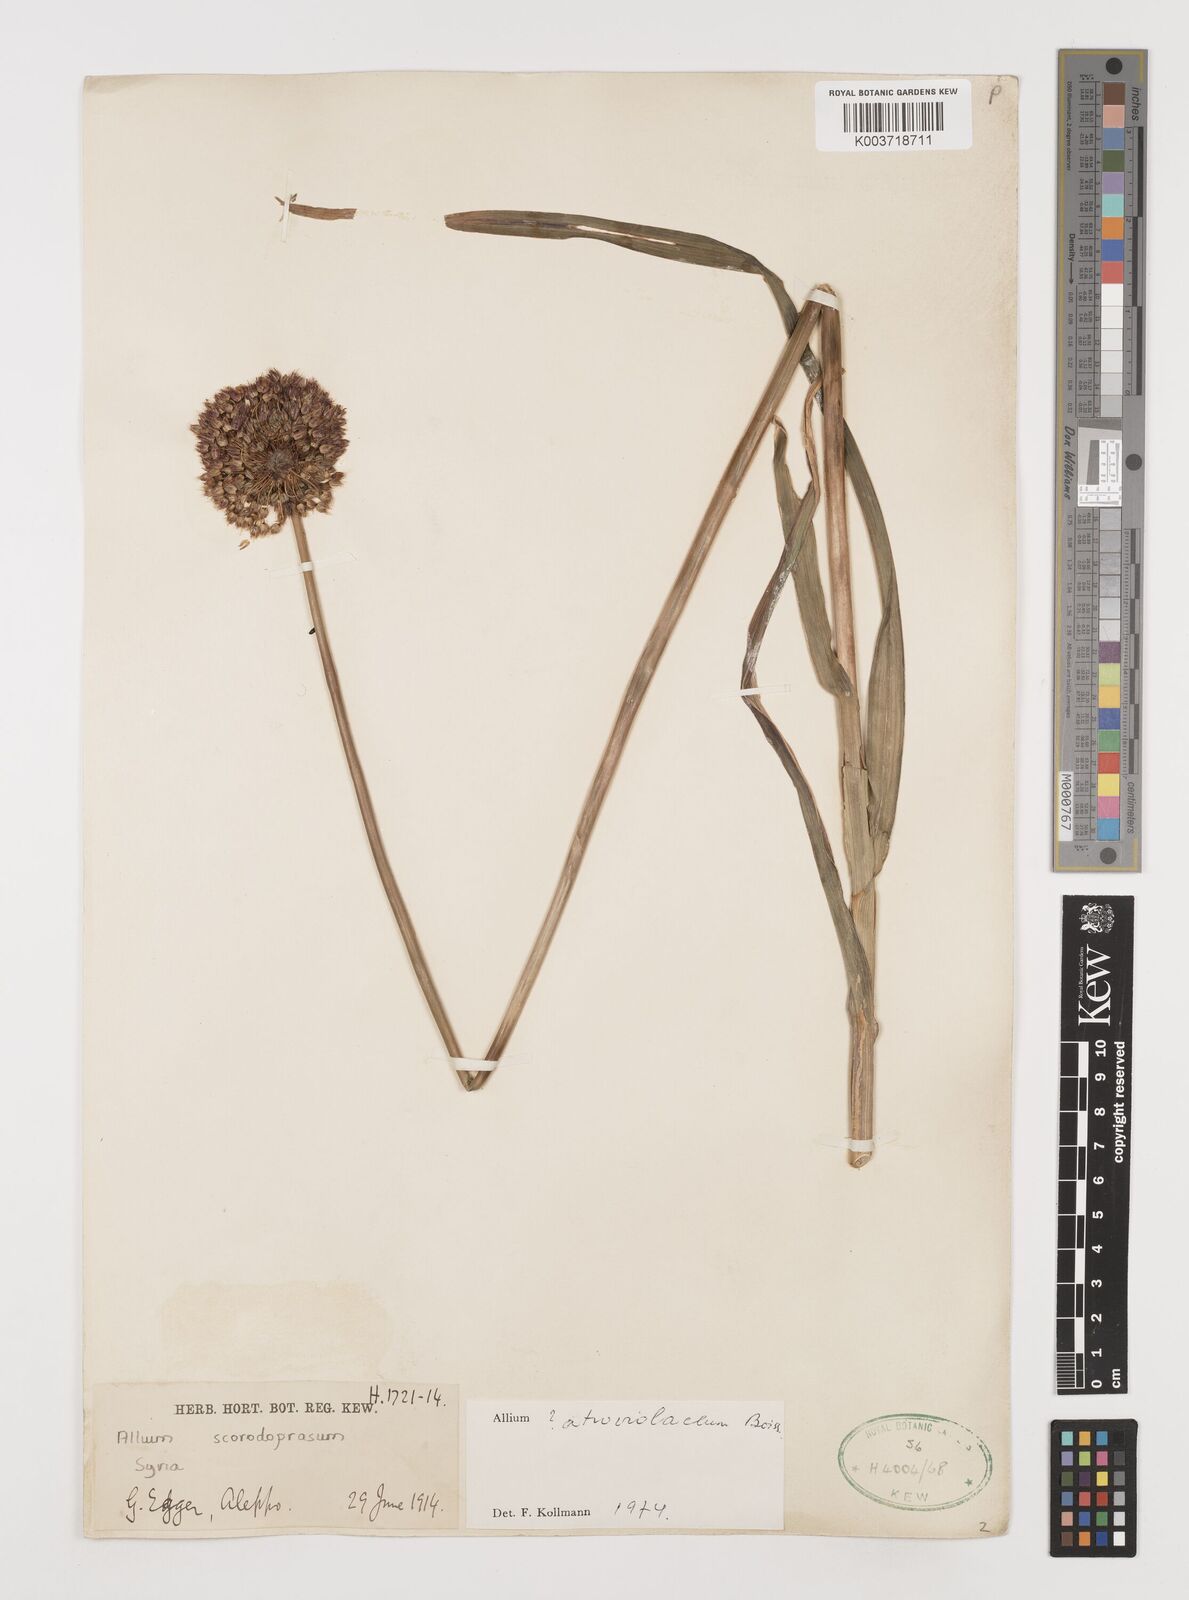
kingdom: Plantae
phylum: Tracheophyta
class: Liliopsida
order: Asparagales
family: Amaryllidaceae
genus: Allium
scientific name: Allium atroviolaceum
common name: Broadleaf wild leek
